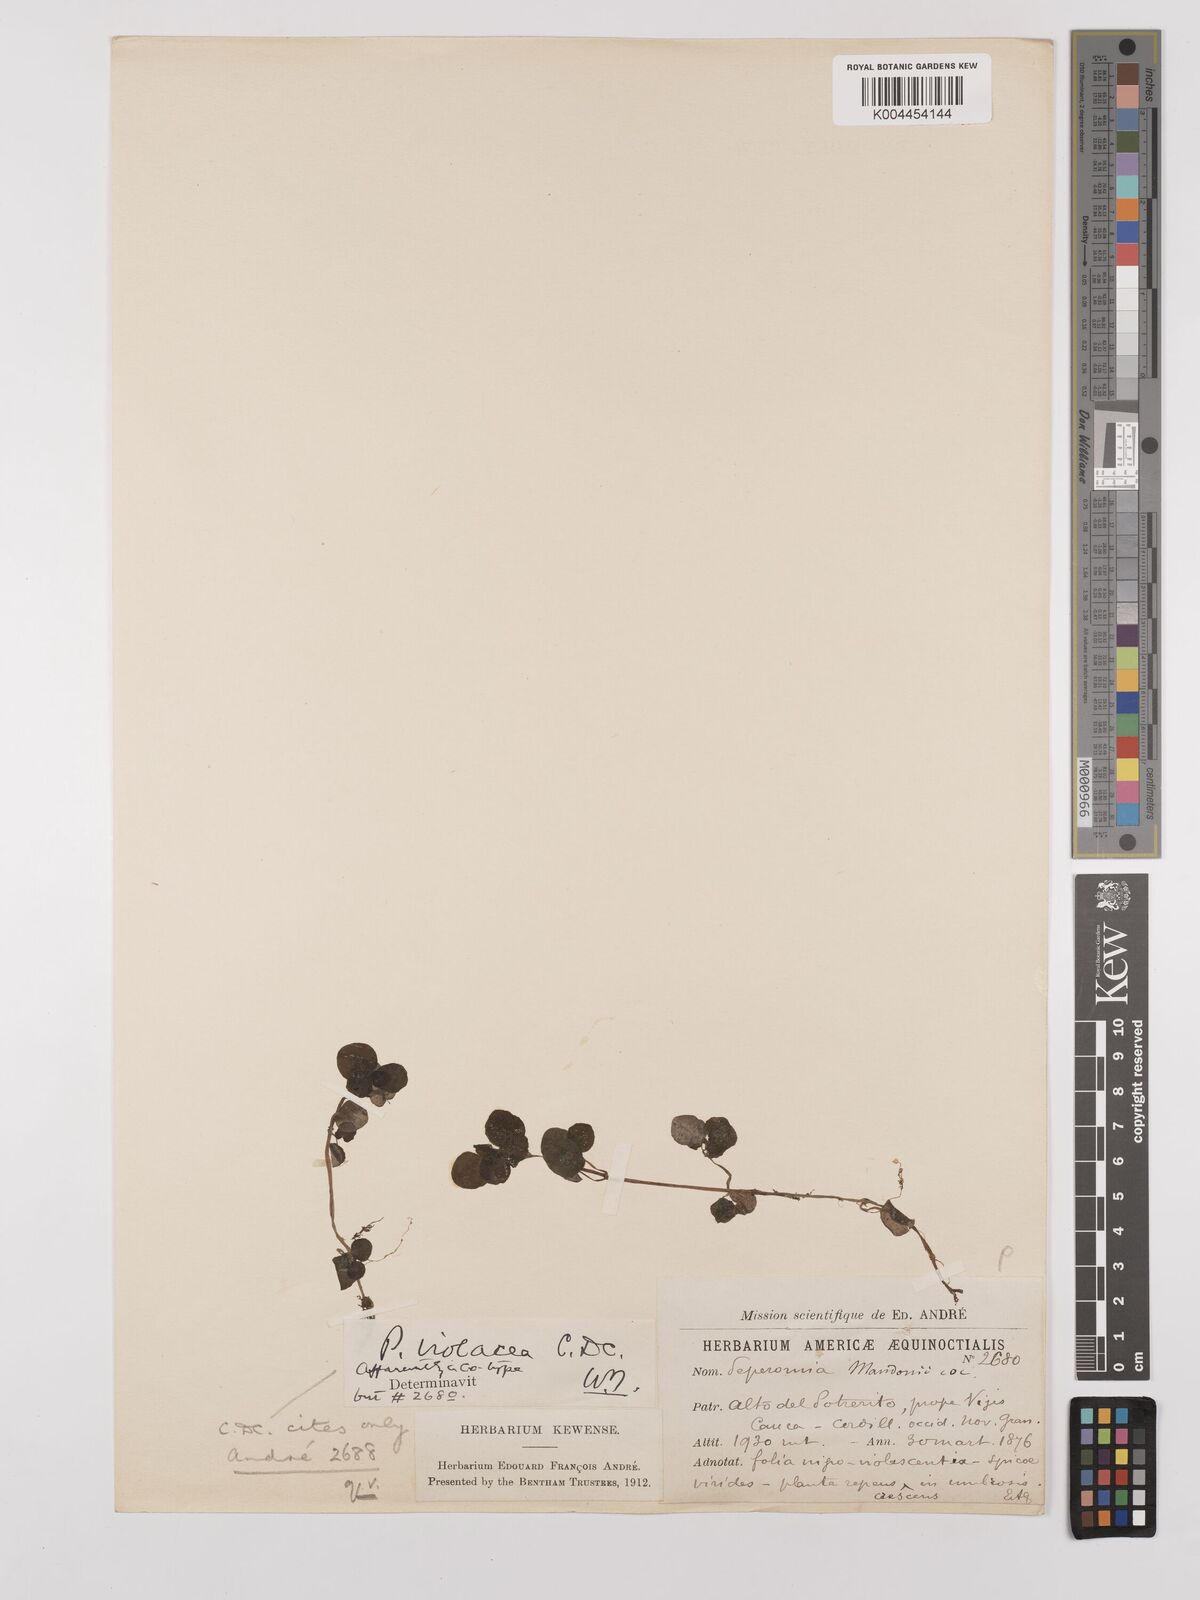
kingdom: Plantae
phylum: Tracheophyta
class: Magnoliopsida
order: Piperales
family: Piperaceae
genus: Peperomia
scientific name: Peperomia violacea
